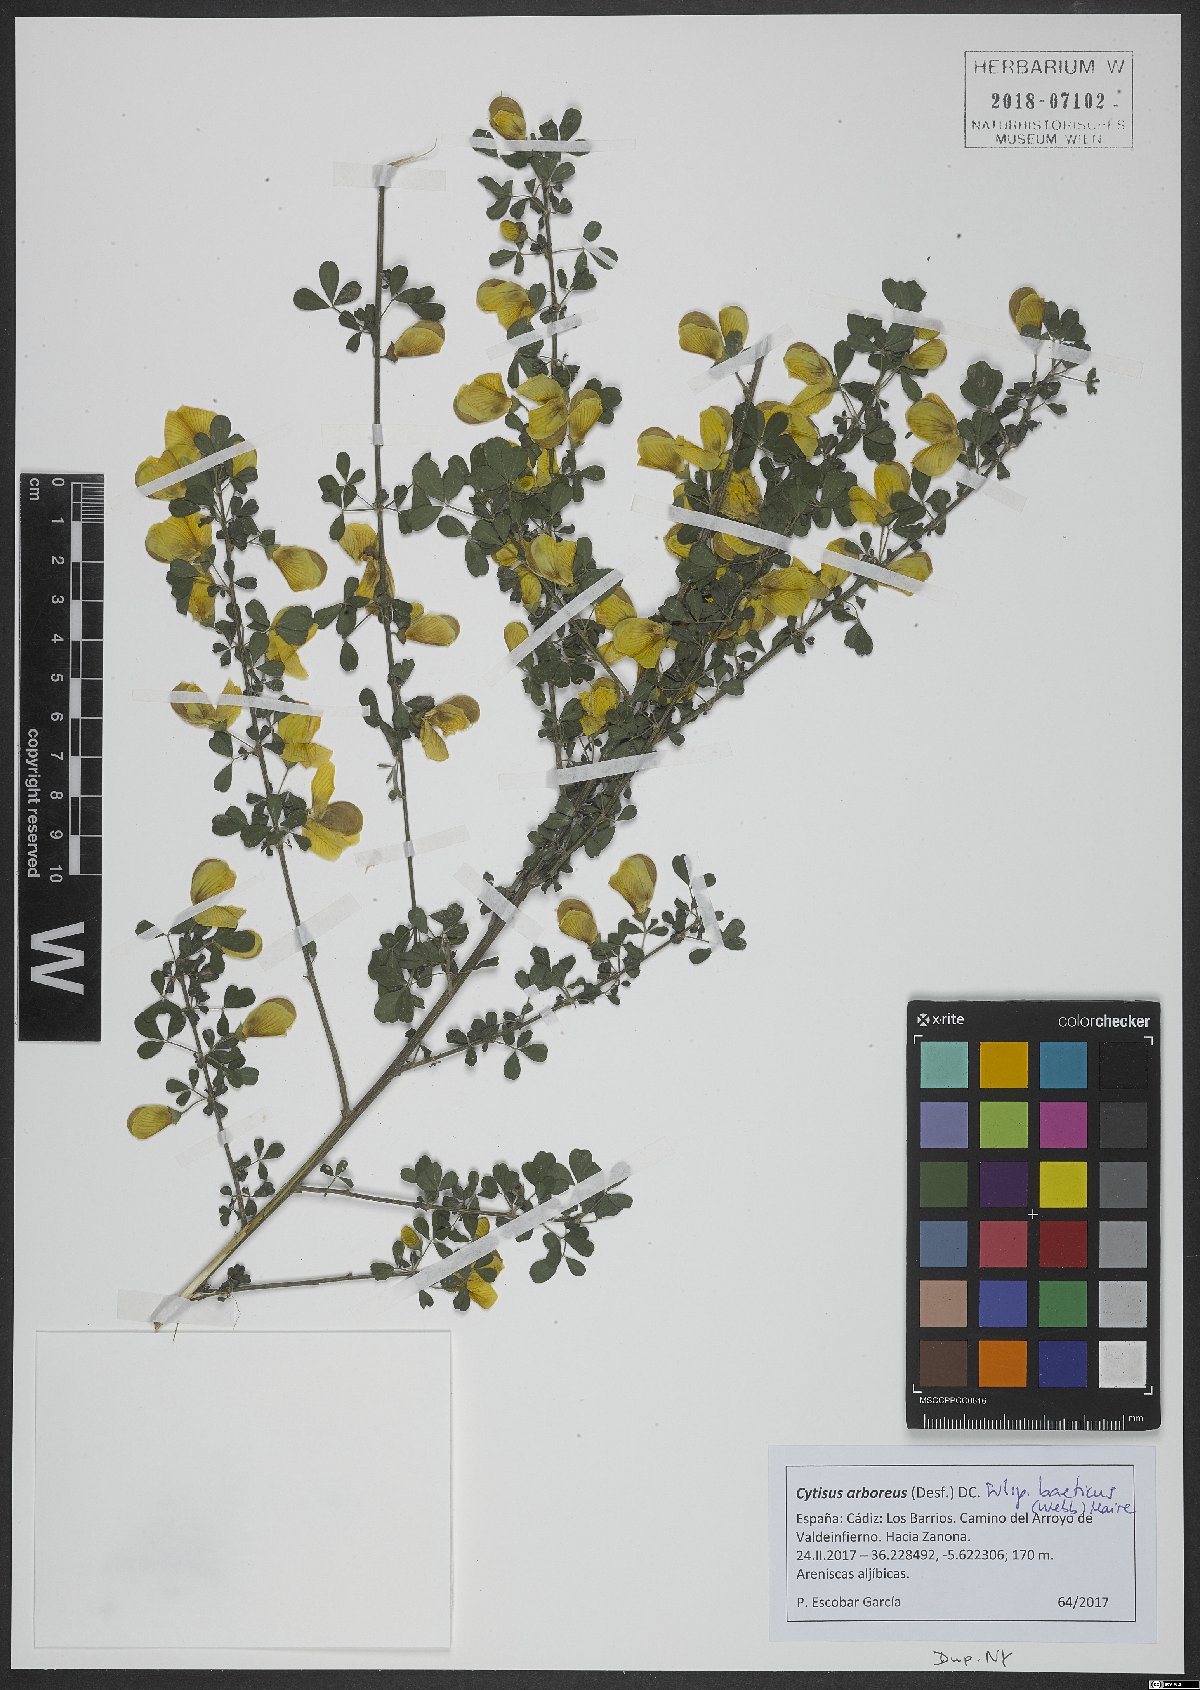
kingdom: Plantae
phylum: Tracheophyta
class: Magnoliopsida
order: Fabales
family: Fabaceae
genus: Cytisus
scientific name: Cytisus arboreus
